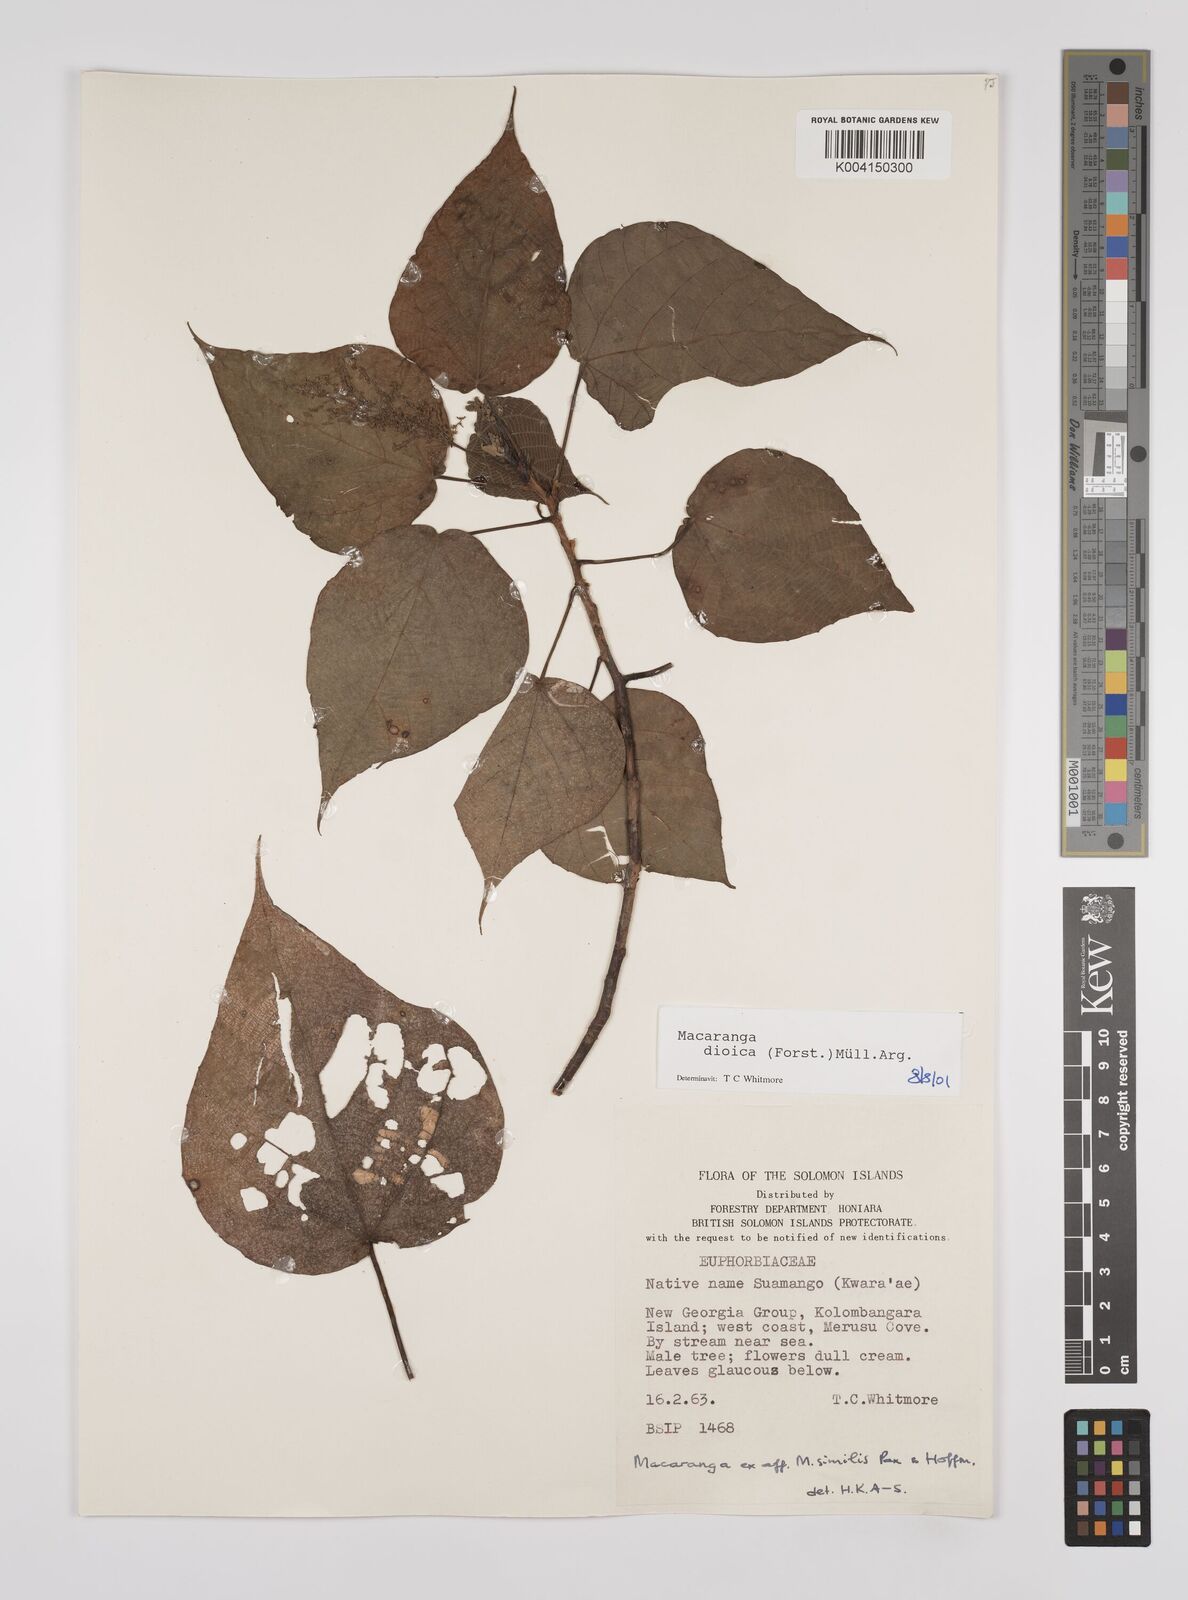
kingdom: Plantae
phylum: Tracheophyta
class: Magnoliopsida
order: Malpighiales
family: Euphorbiaceae
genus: Macaranga
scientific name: Macaranga dioica
